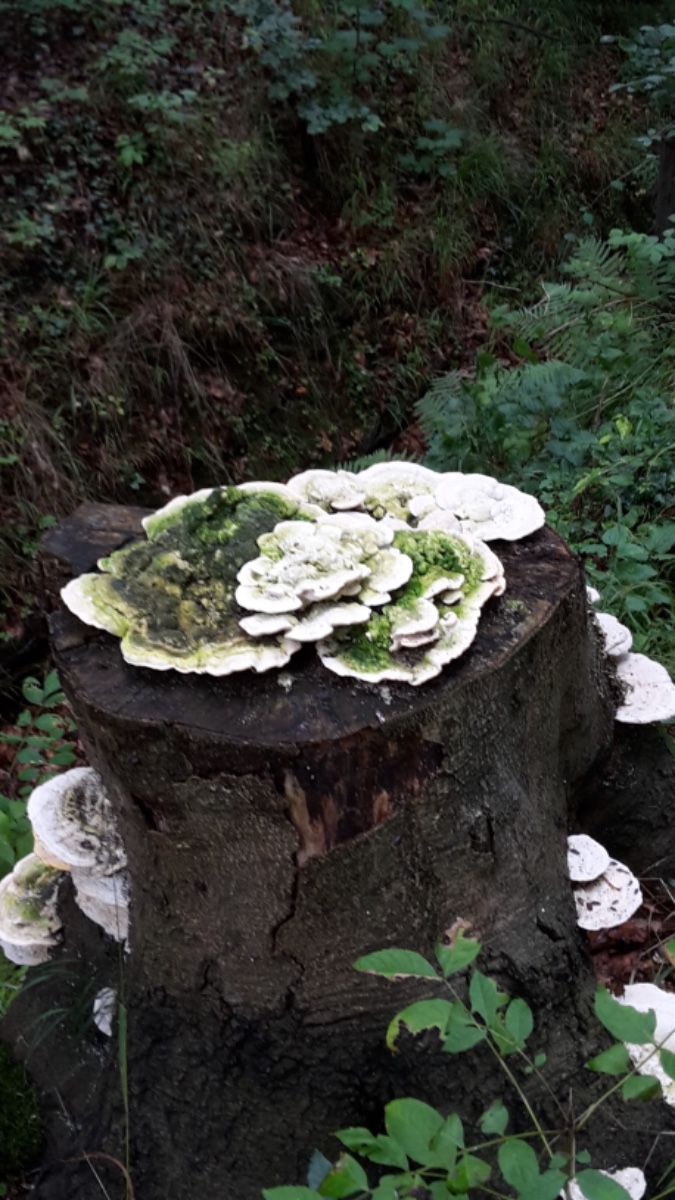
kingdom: Fungi
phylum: Basidiomycota
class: Agaricomycetes
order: Polyporales
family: Polyporaceae
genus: Trametes
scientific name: Trametes gibbosa
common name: puklet læderporesvamp
